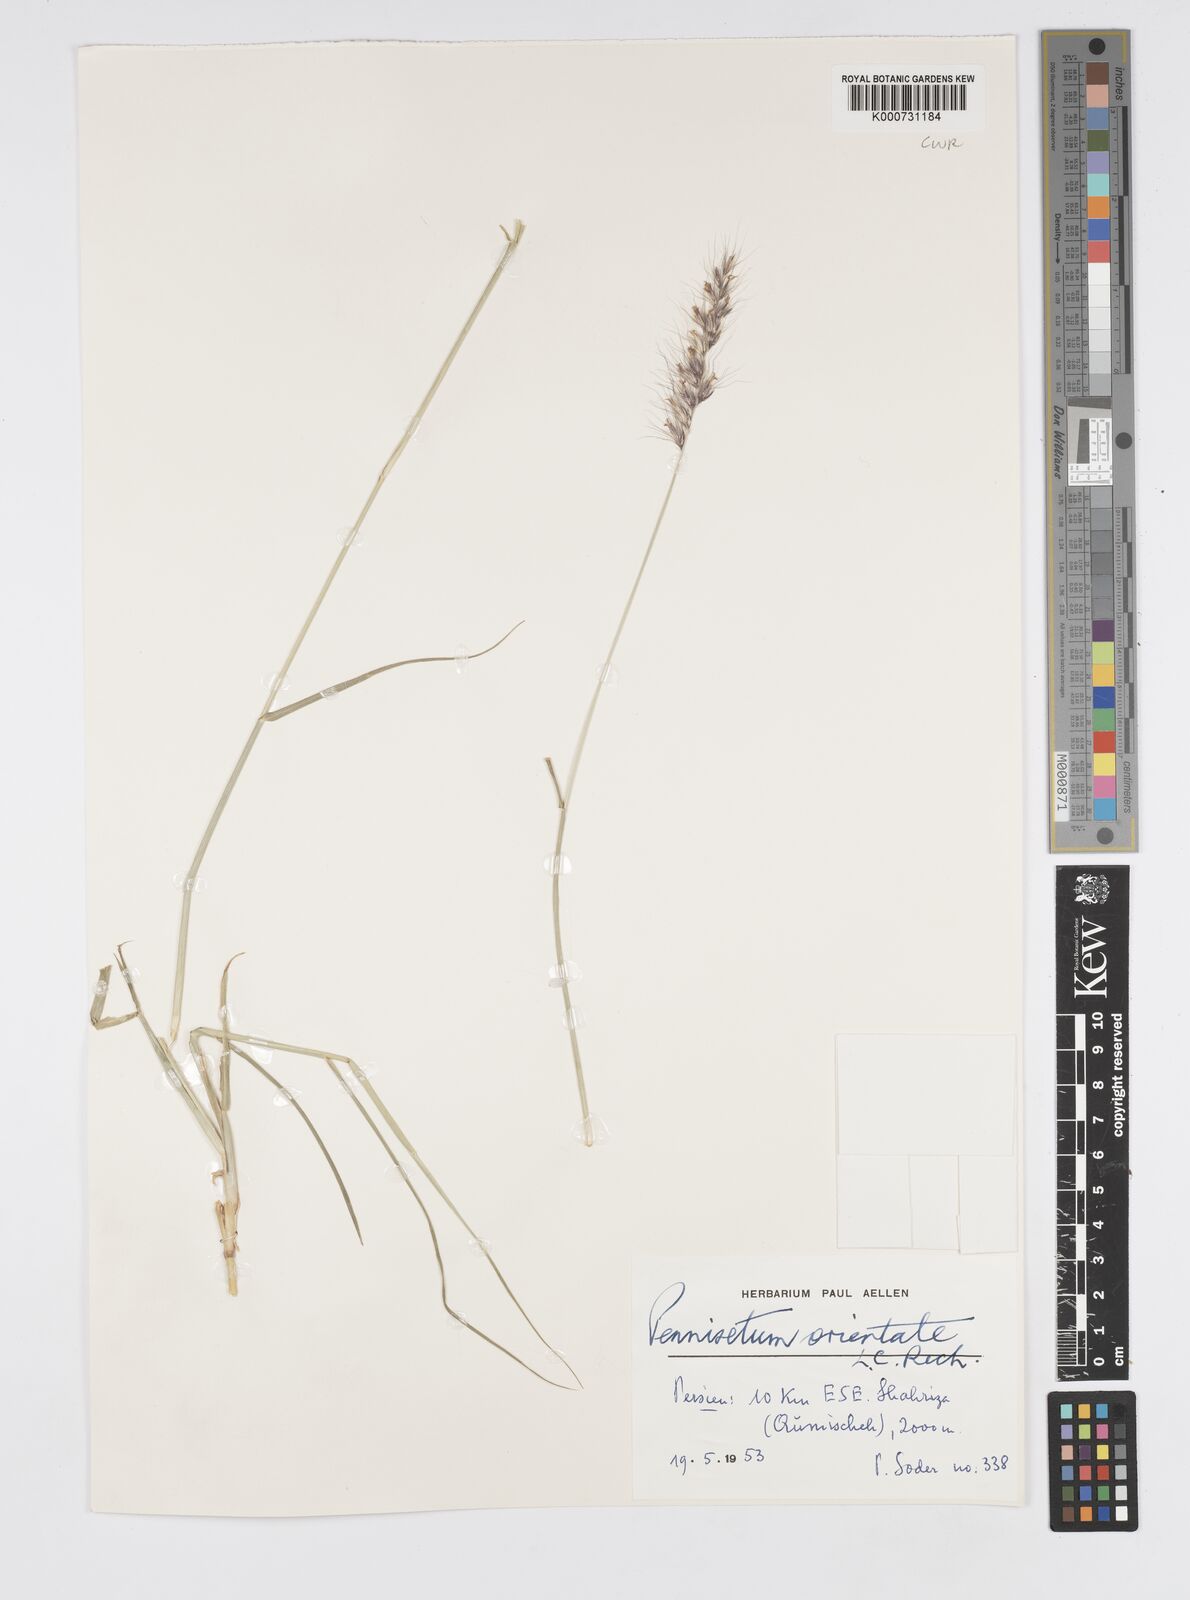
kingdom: Plantae
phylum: Tracheophyta
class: Liliopsida
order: Poales
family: Poaceae
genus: Cenchrus
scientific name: Cenchrus orientalis
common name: Oriental fountain grass
